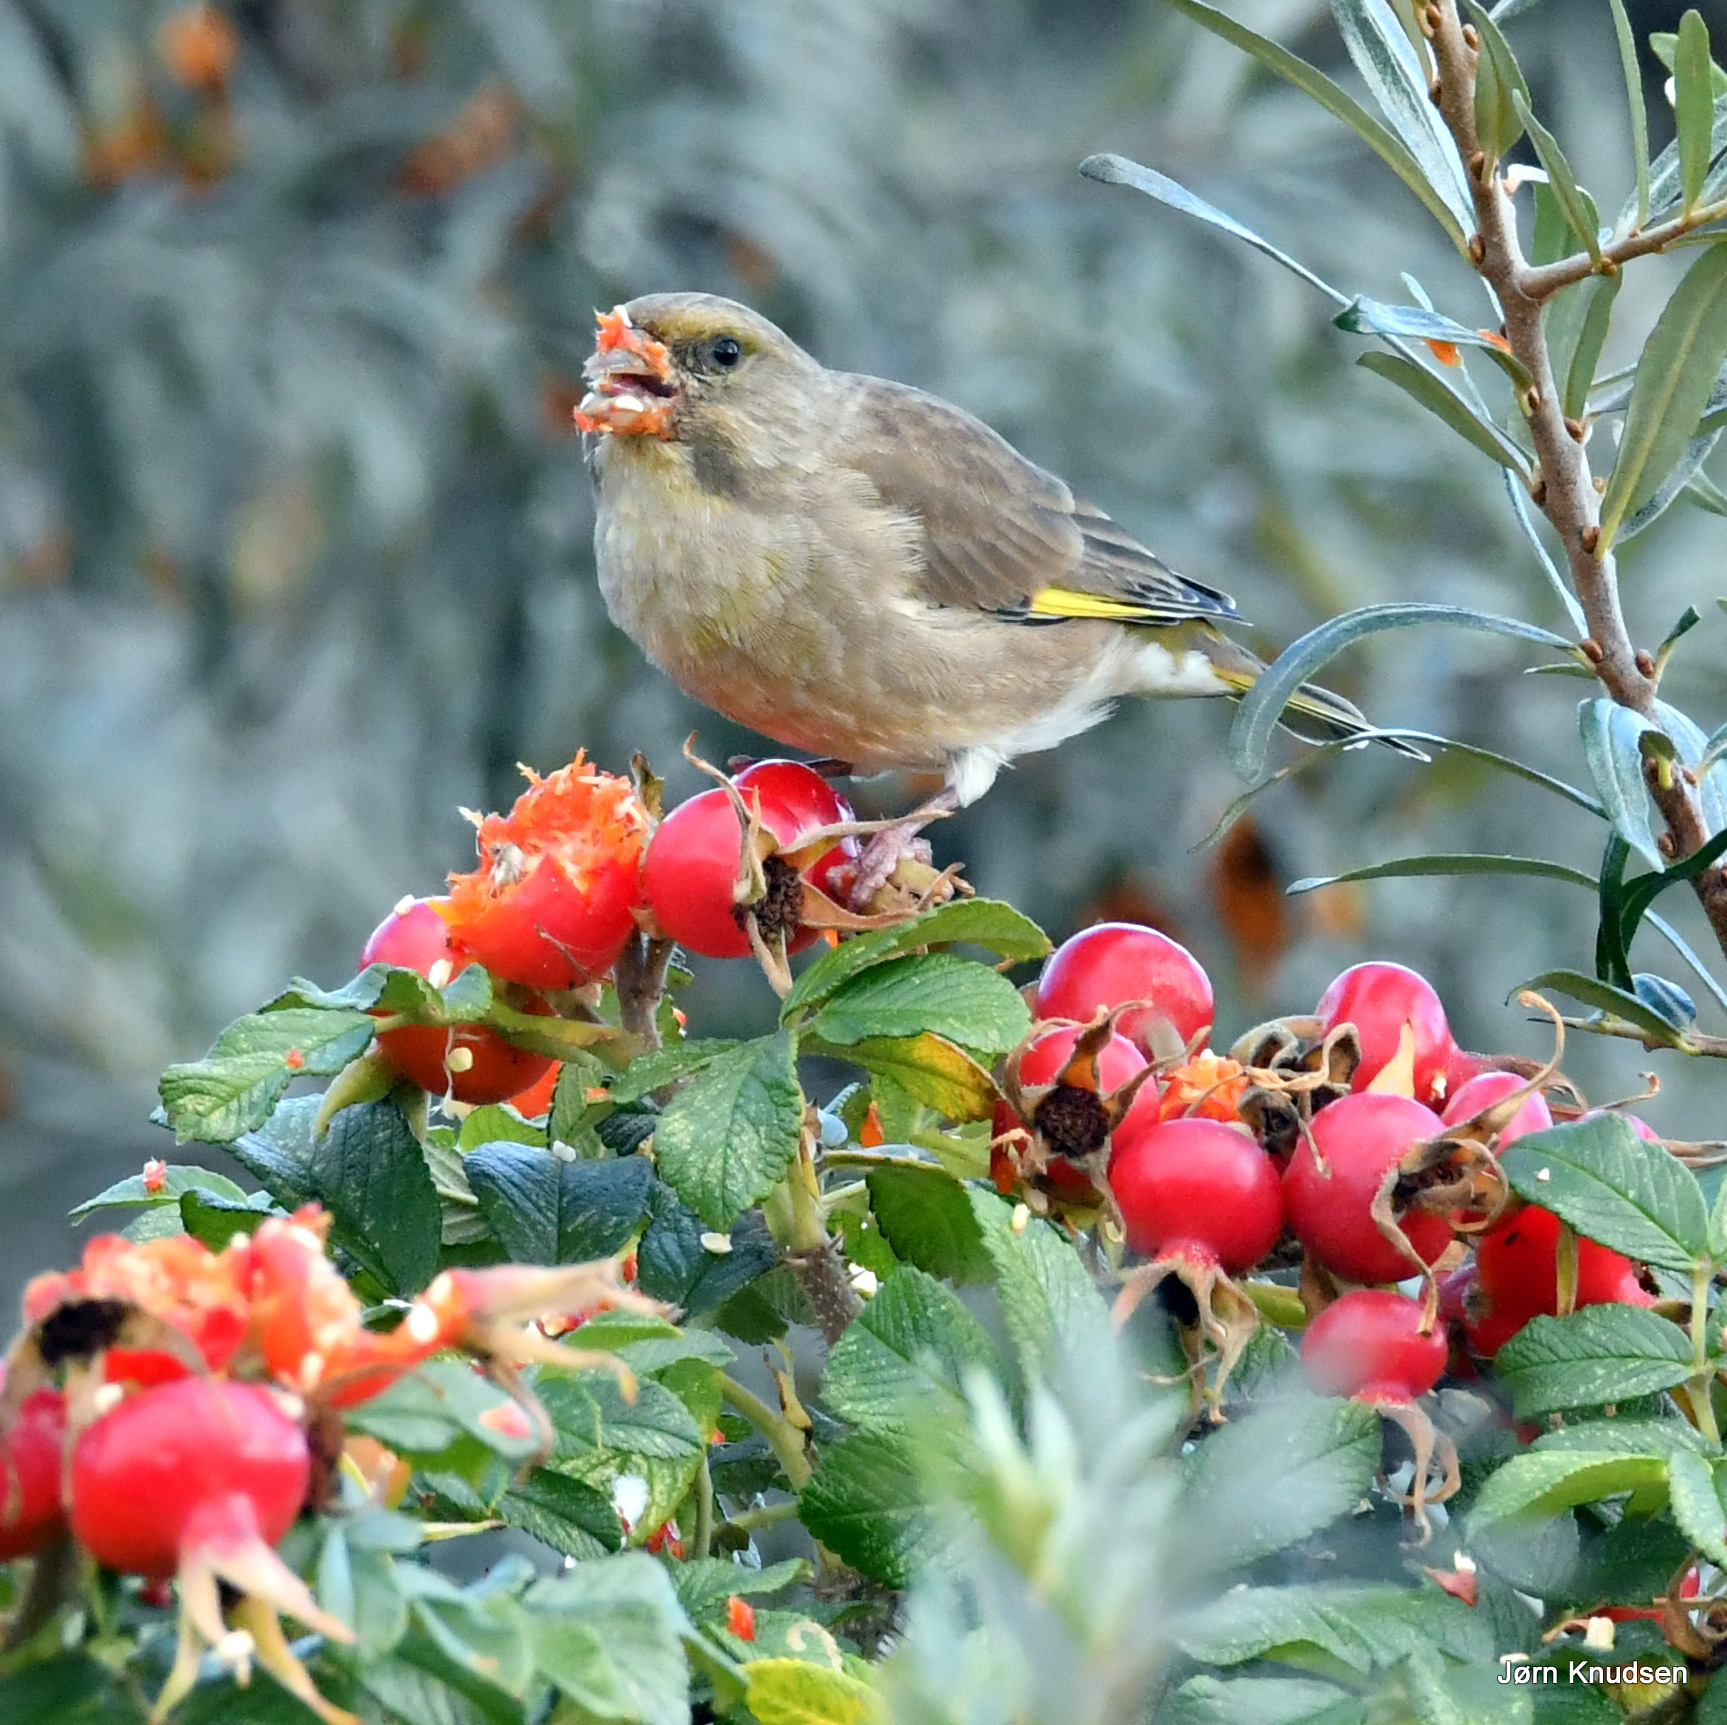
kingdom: Plantae
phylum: Tracheophyta
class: Liliopsida
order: Poales
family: Poaceae
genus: Chloris
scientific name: Chloris chloris
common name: Grønirisk
